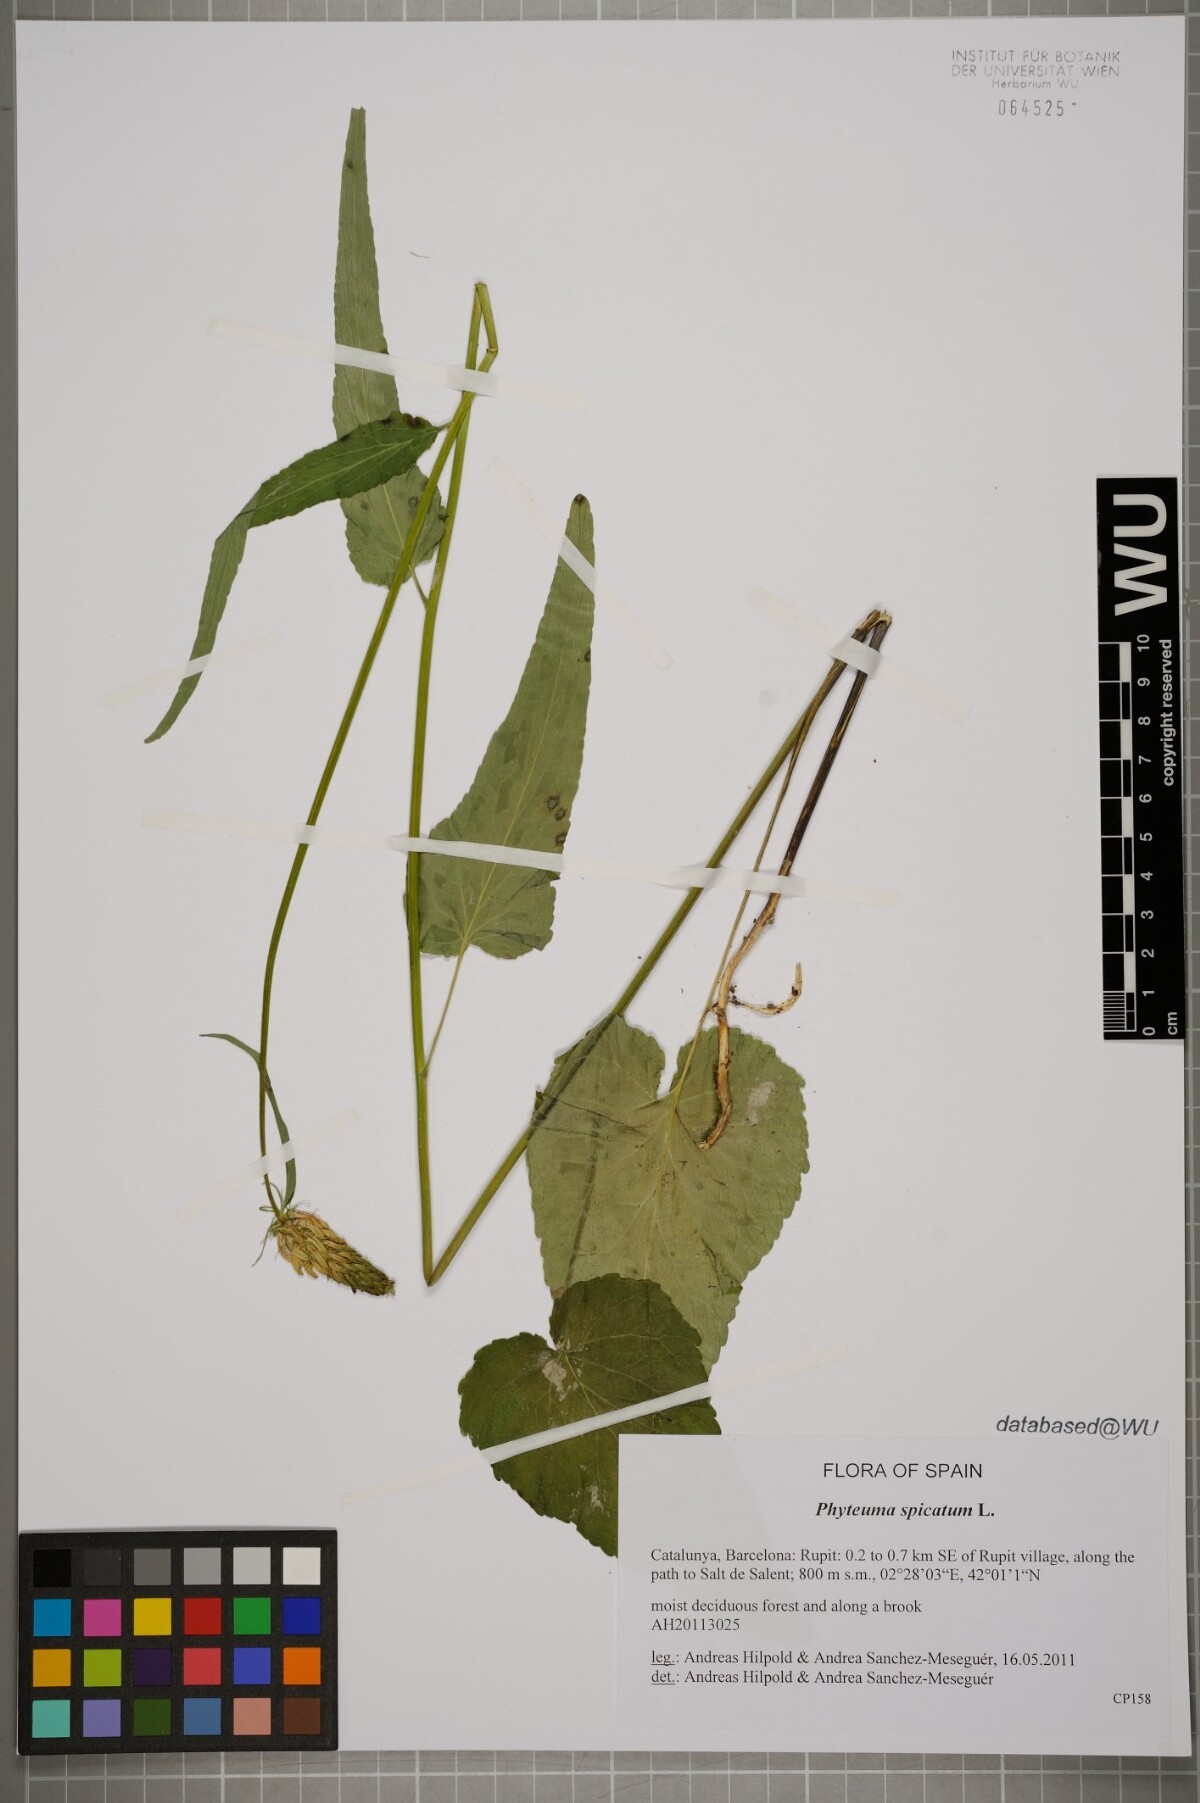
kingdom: Plantae
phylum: Tracheophyta
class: Magnoliopsida
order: Asterales
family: Campanulaceae
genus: Phyteuma
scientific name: Phyteuma spicatum
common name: Spiked rampion
